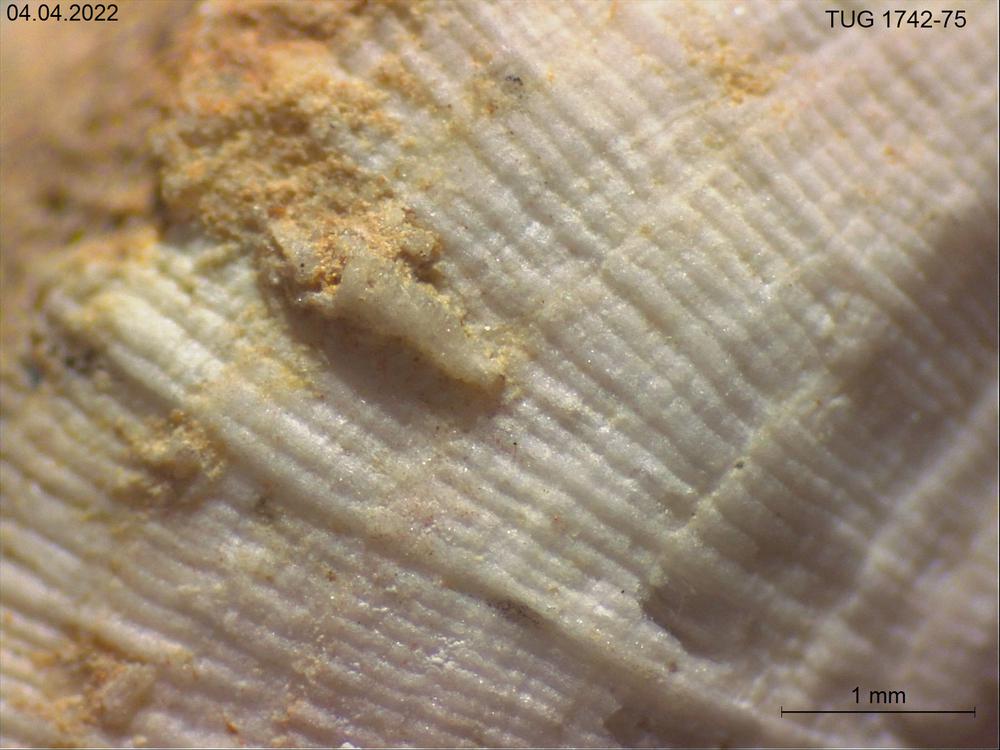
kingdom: Animalia
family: Cornulitidae
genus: Cornulites
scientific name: Cornulites
